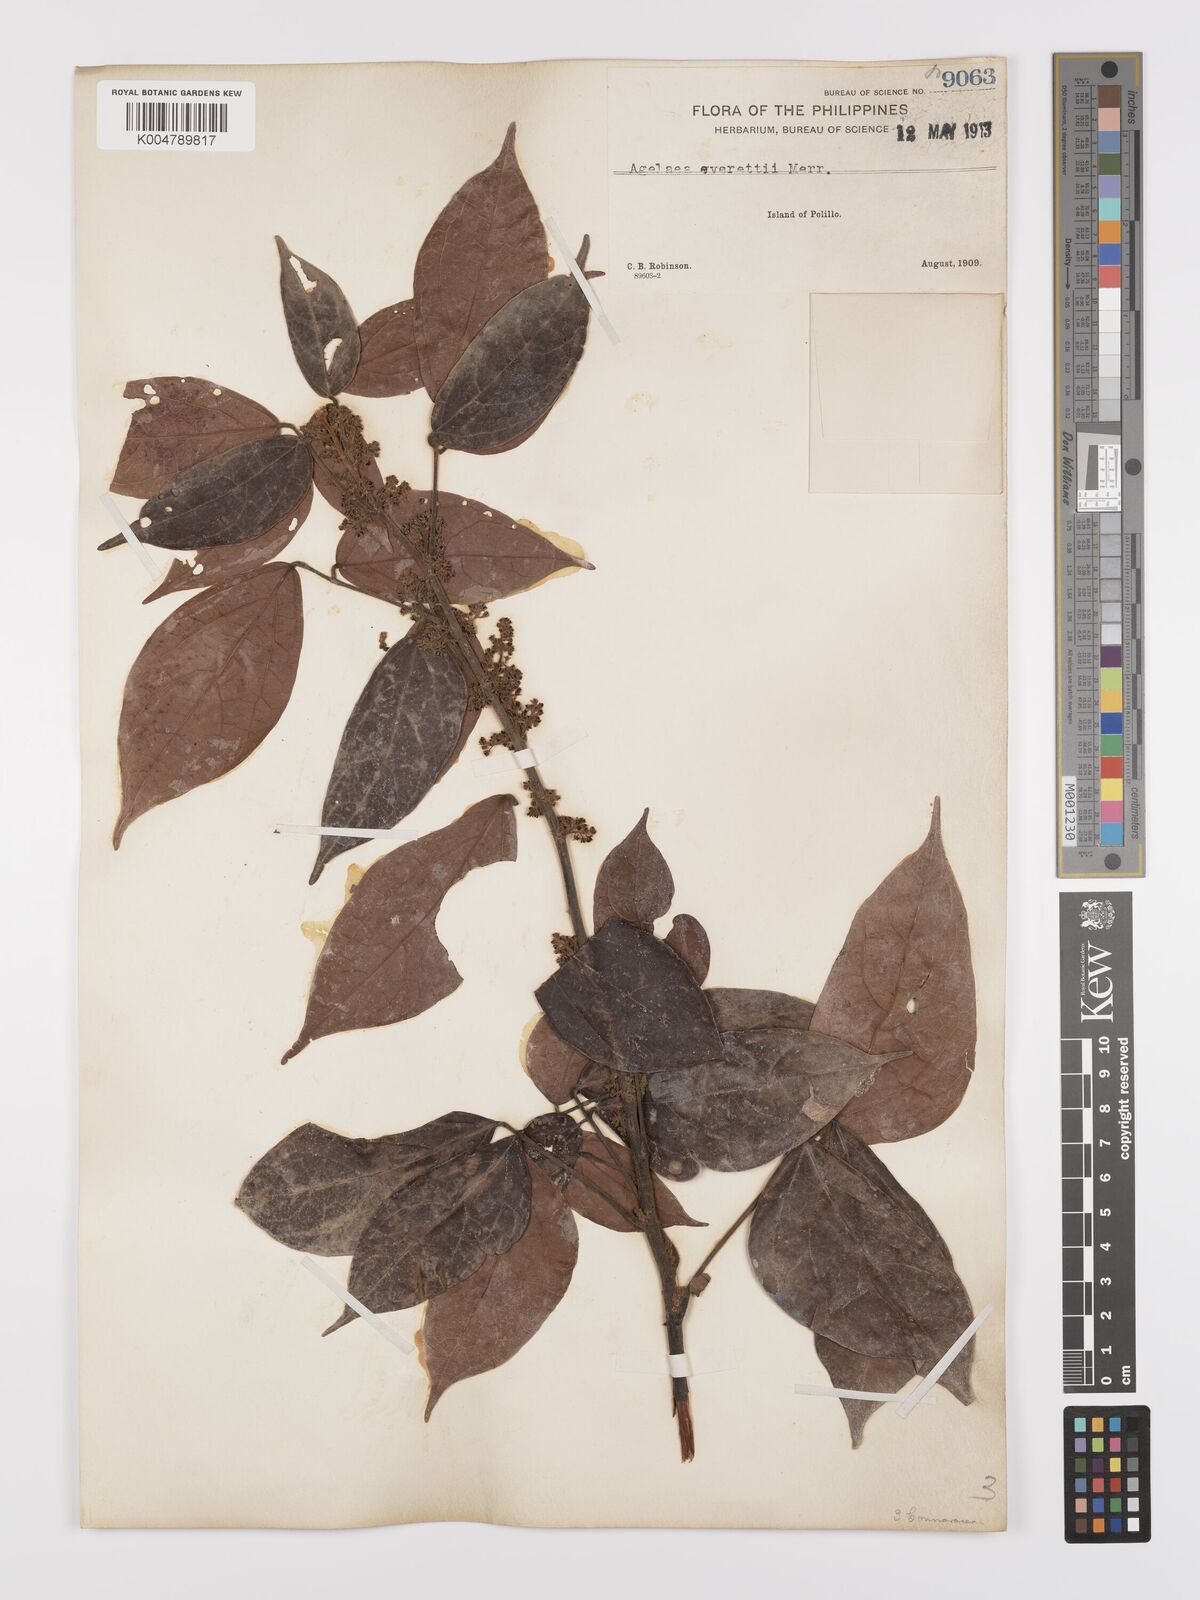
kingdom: Plantae
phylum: Tracheophyta
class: Magnoliopsida
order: Oxalidales
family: Connaraceae
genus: Agelaea
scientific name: Agelaea borneensis
